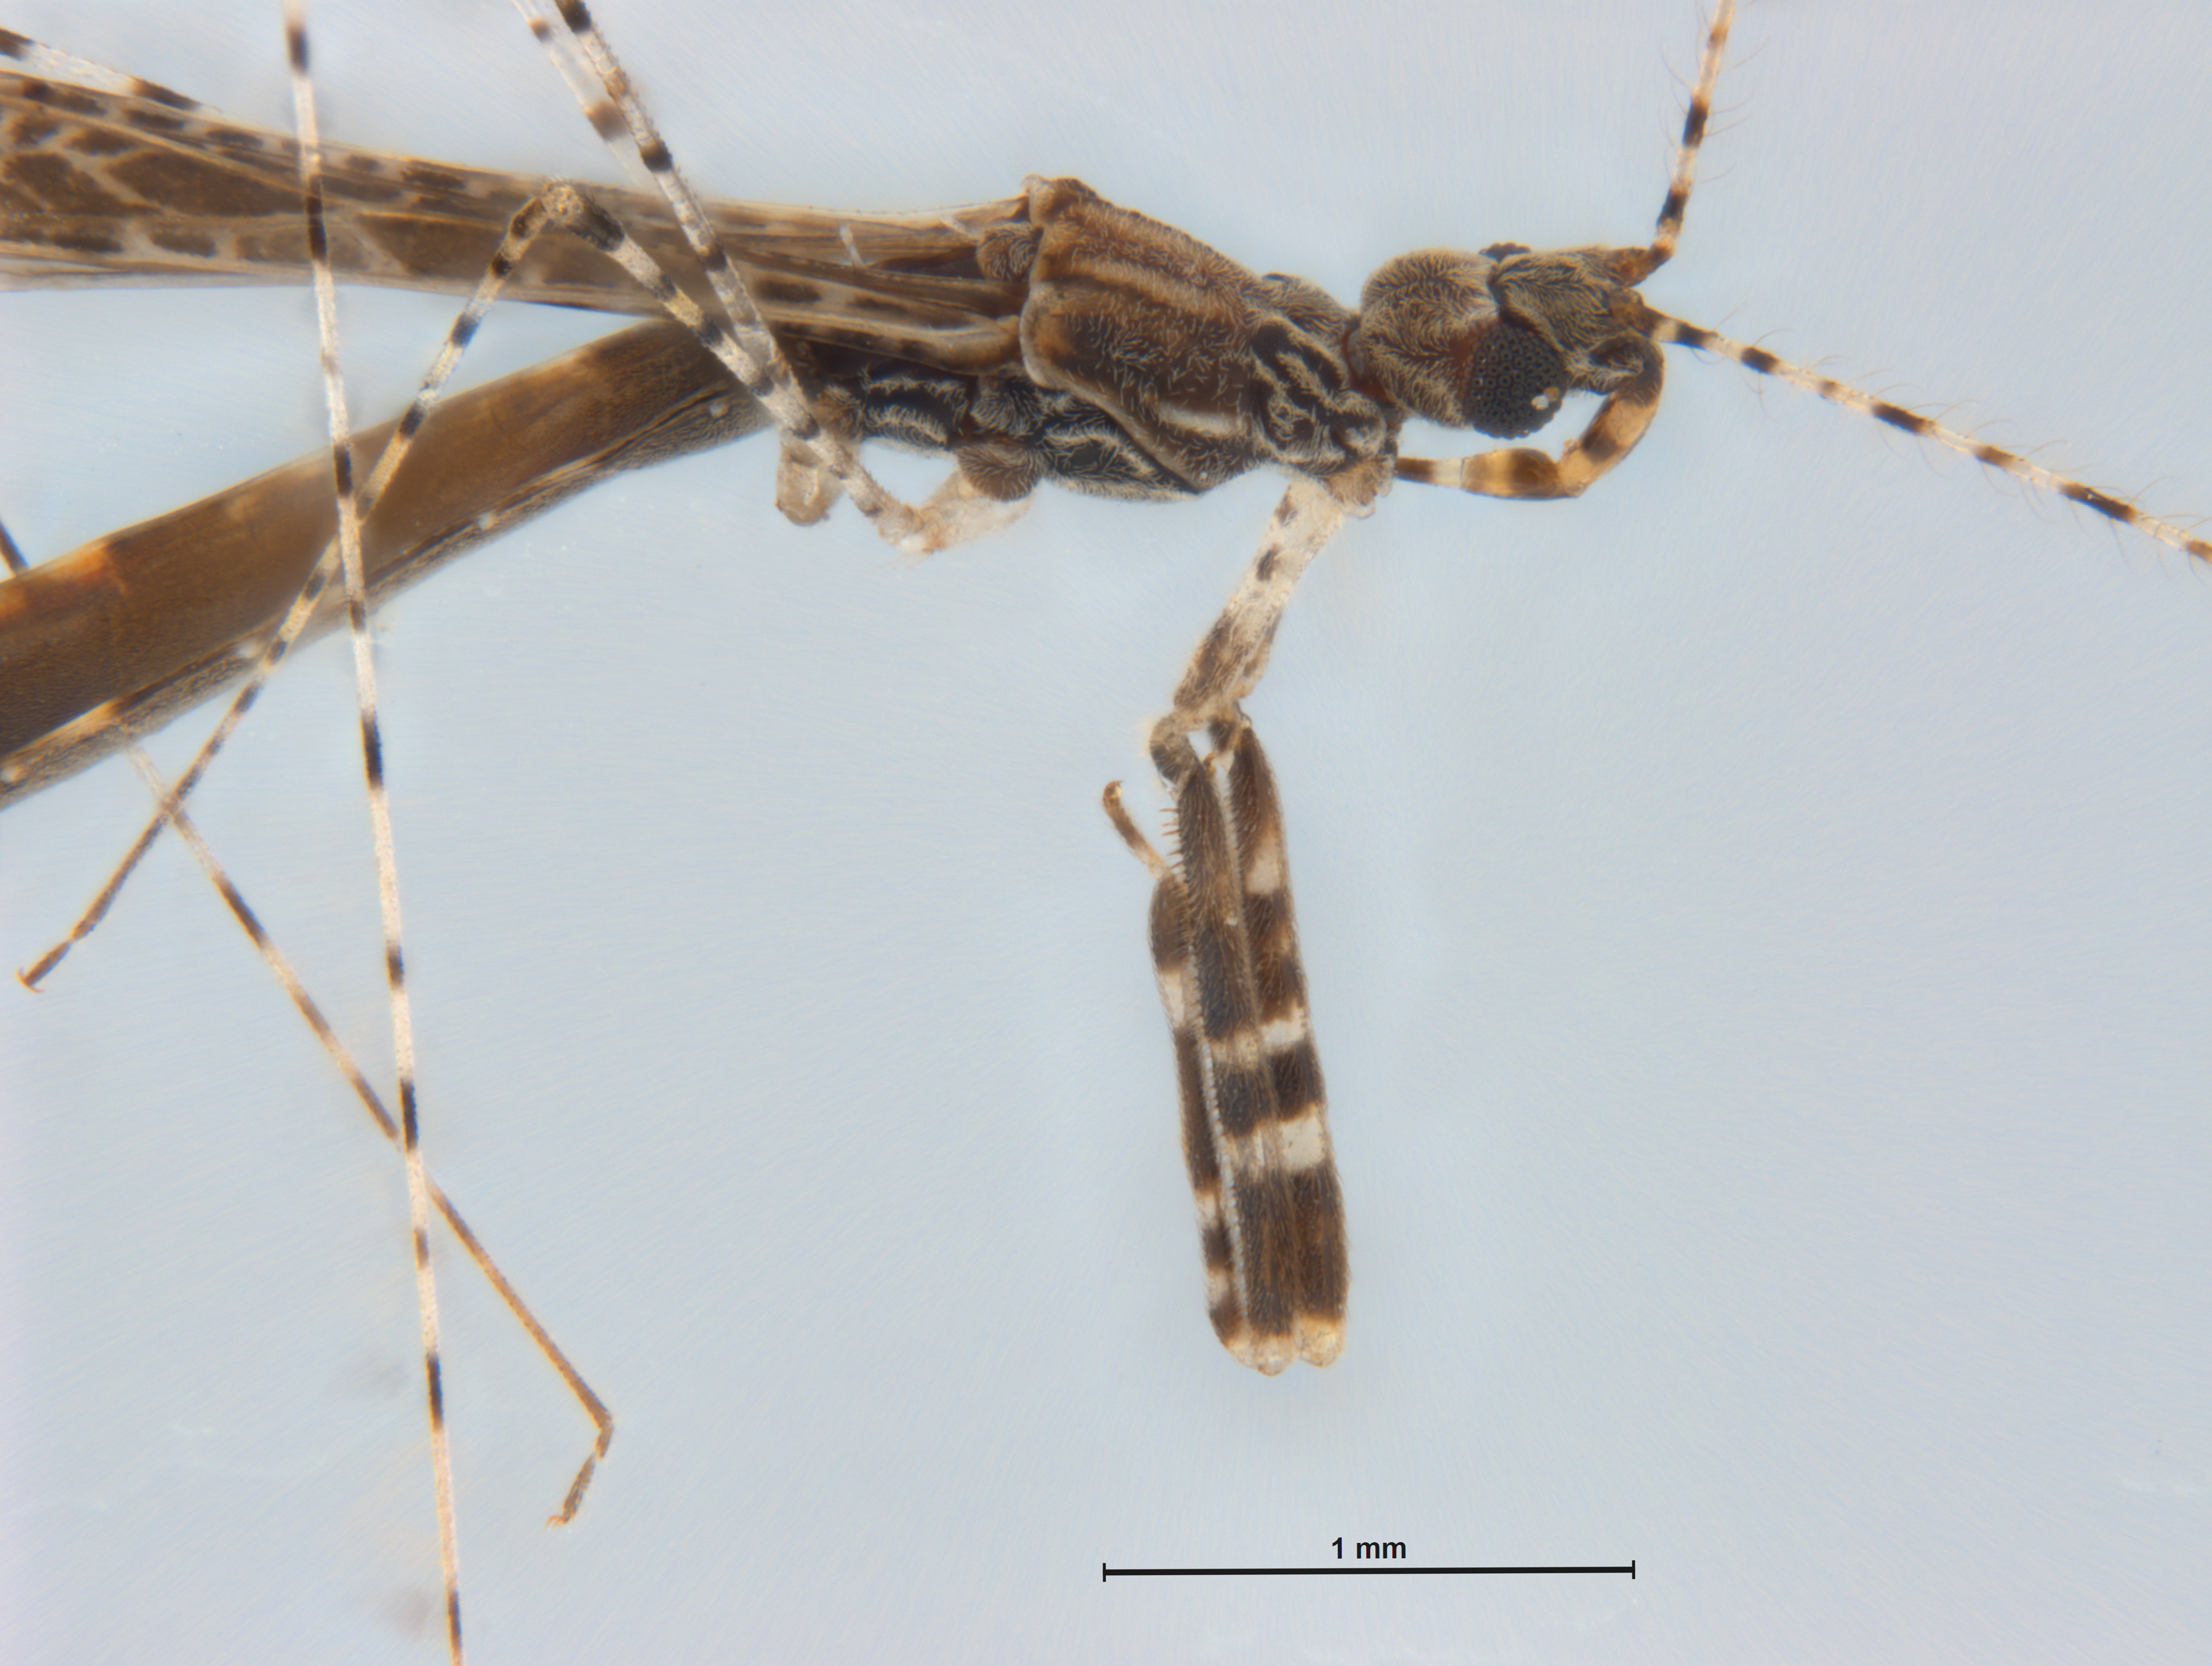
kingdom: Animalia
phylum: Arthropoda
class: Insecta
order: Hemiptera
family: Reduviidae
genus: Empicoris
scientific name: Empicoris rubromaculatus
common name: Thread-legged bug
